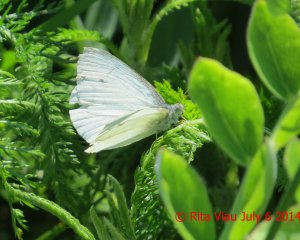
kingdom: Animalia
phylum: Arthropoda
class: Insecta
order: Lepidoptera
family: Pieridae
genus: Pieris
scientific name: Pieris rapae
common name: Cabbage White
